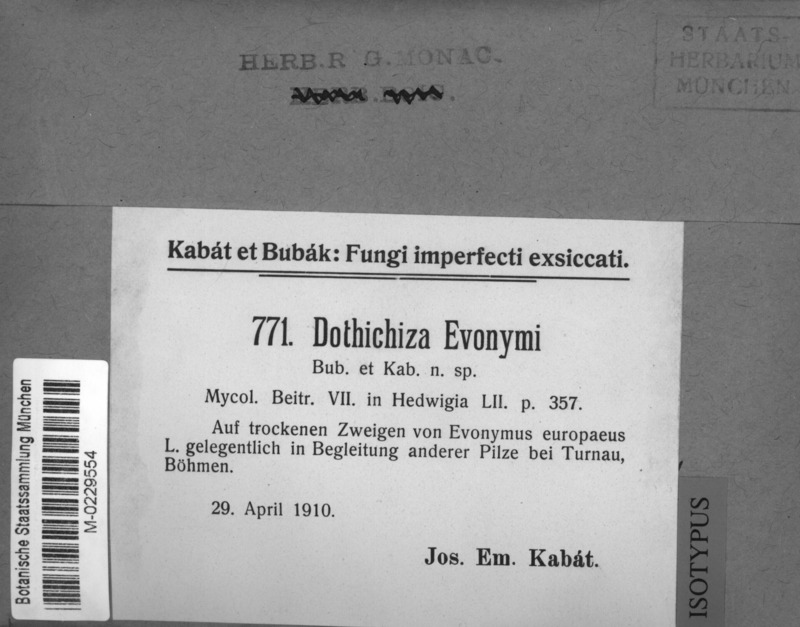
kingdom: Fungi
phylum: Ascomycota
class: Dothideomycetes
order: Dothideales
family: Dothioraceae
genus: Dothichiza
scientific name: Dothichiza foveolaris
